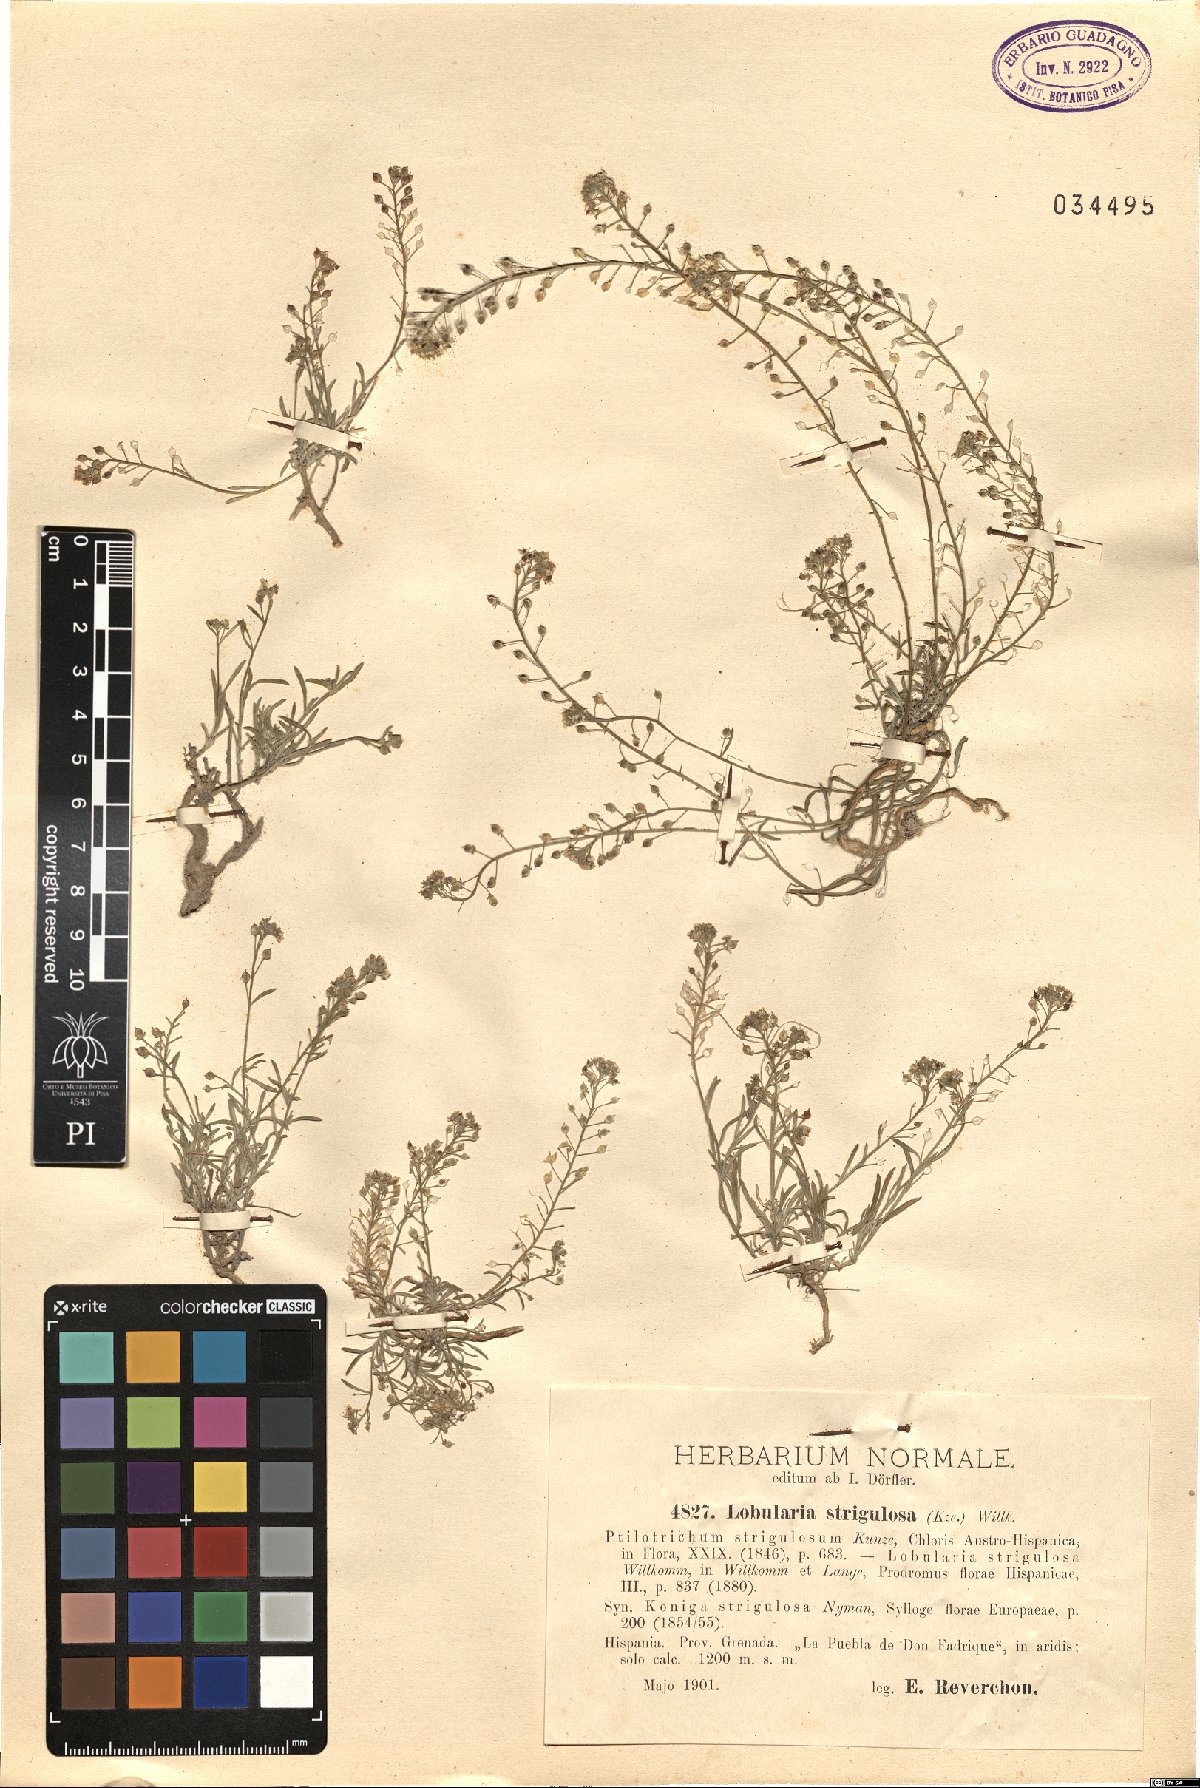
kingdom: Plantae
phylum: Tracheophyta
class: Magnoliopsida
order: Brassicales
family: Brassicaceae
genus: Lobularia
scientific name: Lobularia maritima
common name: Sweet alison
